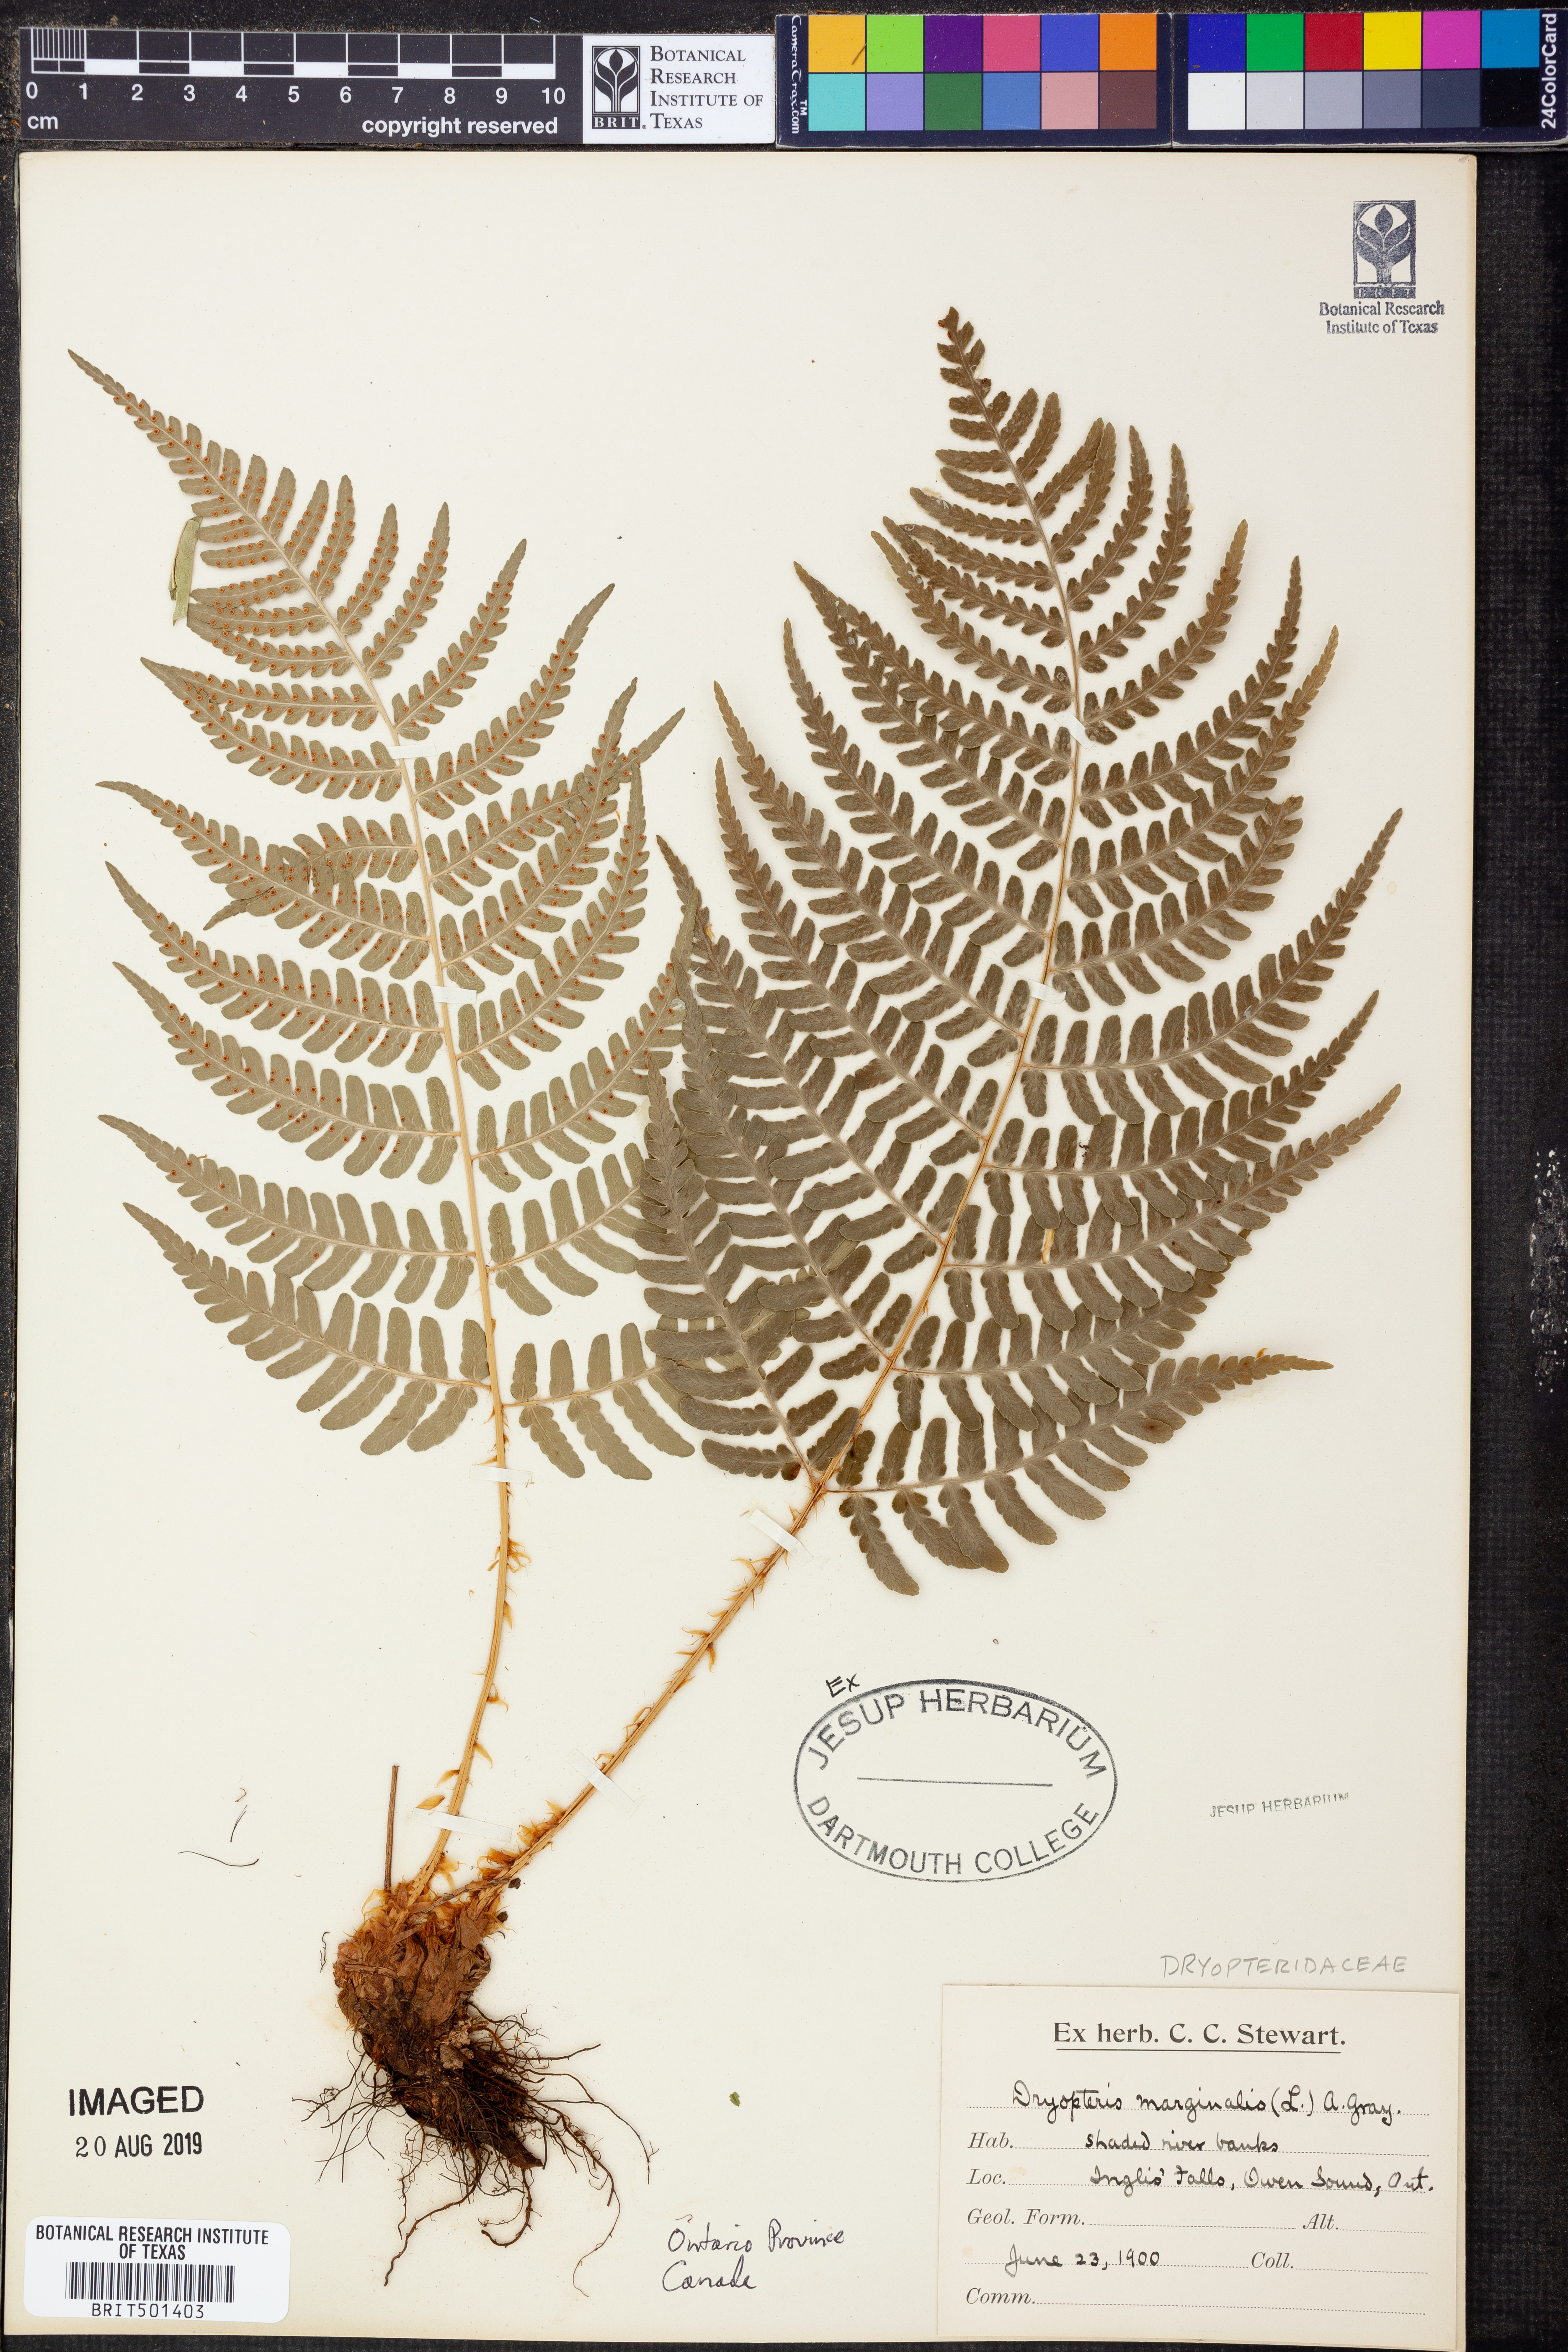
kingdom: Plantae
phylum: Tracheophyta
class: Polypodiopsida
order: Polypodiales
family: Dryopteridaceae
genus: Dryopteris
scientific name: Dryopteris marginalis
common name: Marginal wood fern
